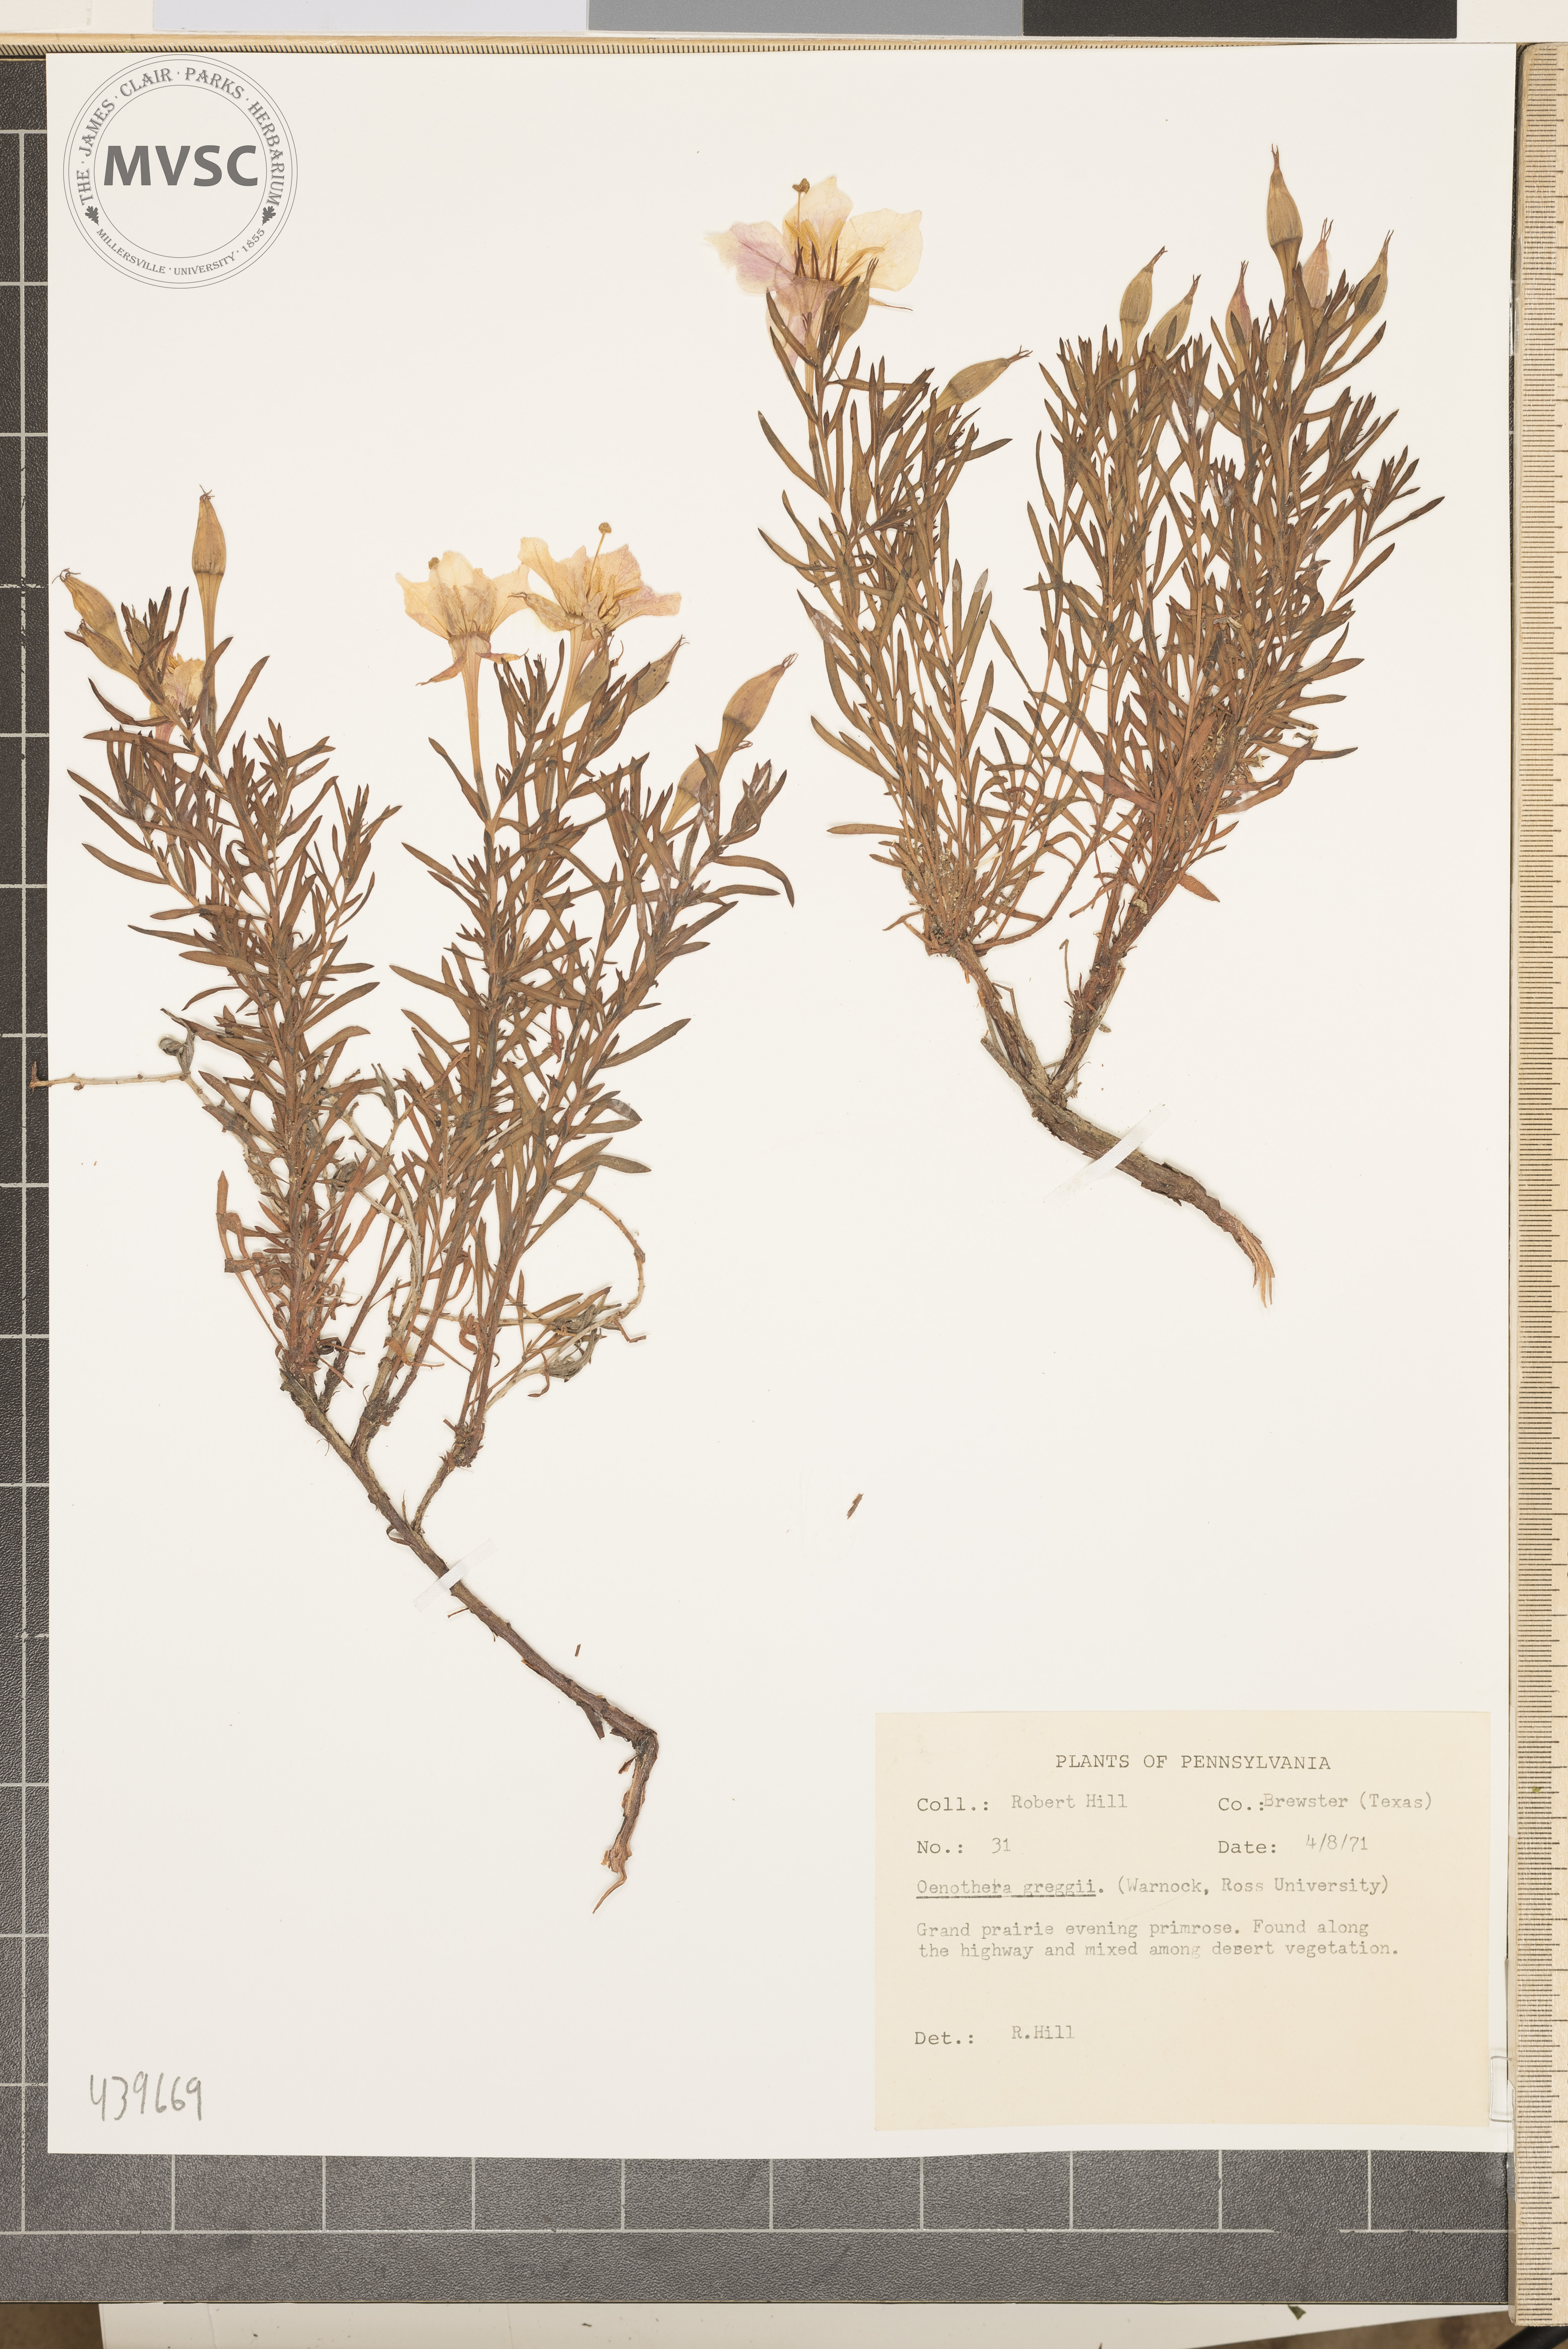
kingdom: Plantae
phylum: Tracheophyta
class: Magnoliopsida
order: Myrtales
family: Onagraceae
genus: Oenothera
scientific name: Oenothera hartwegii
